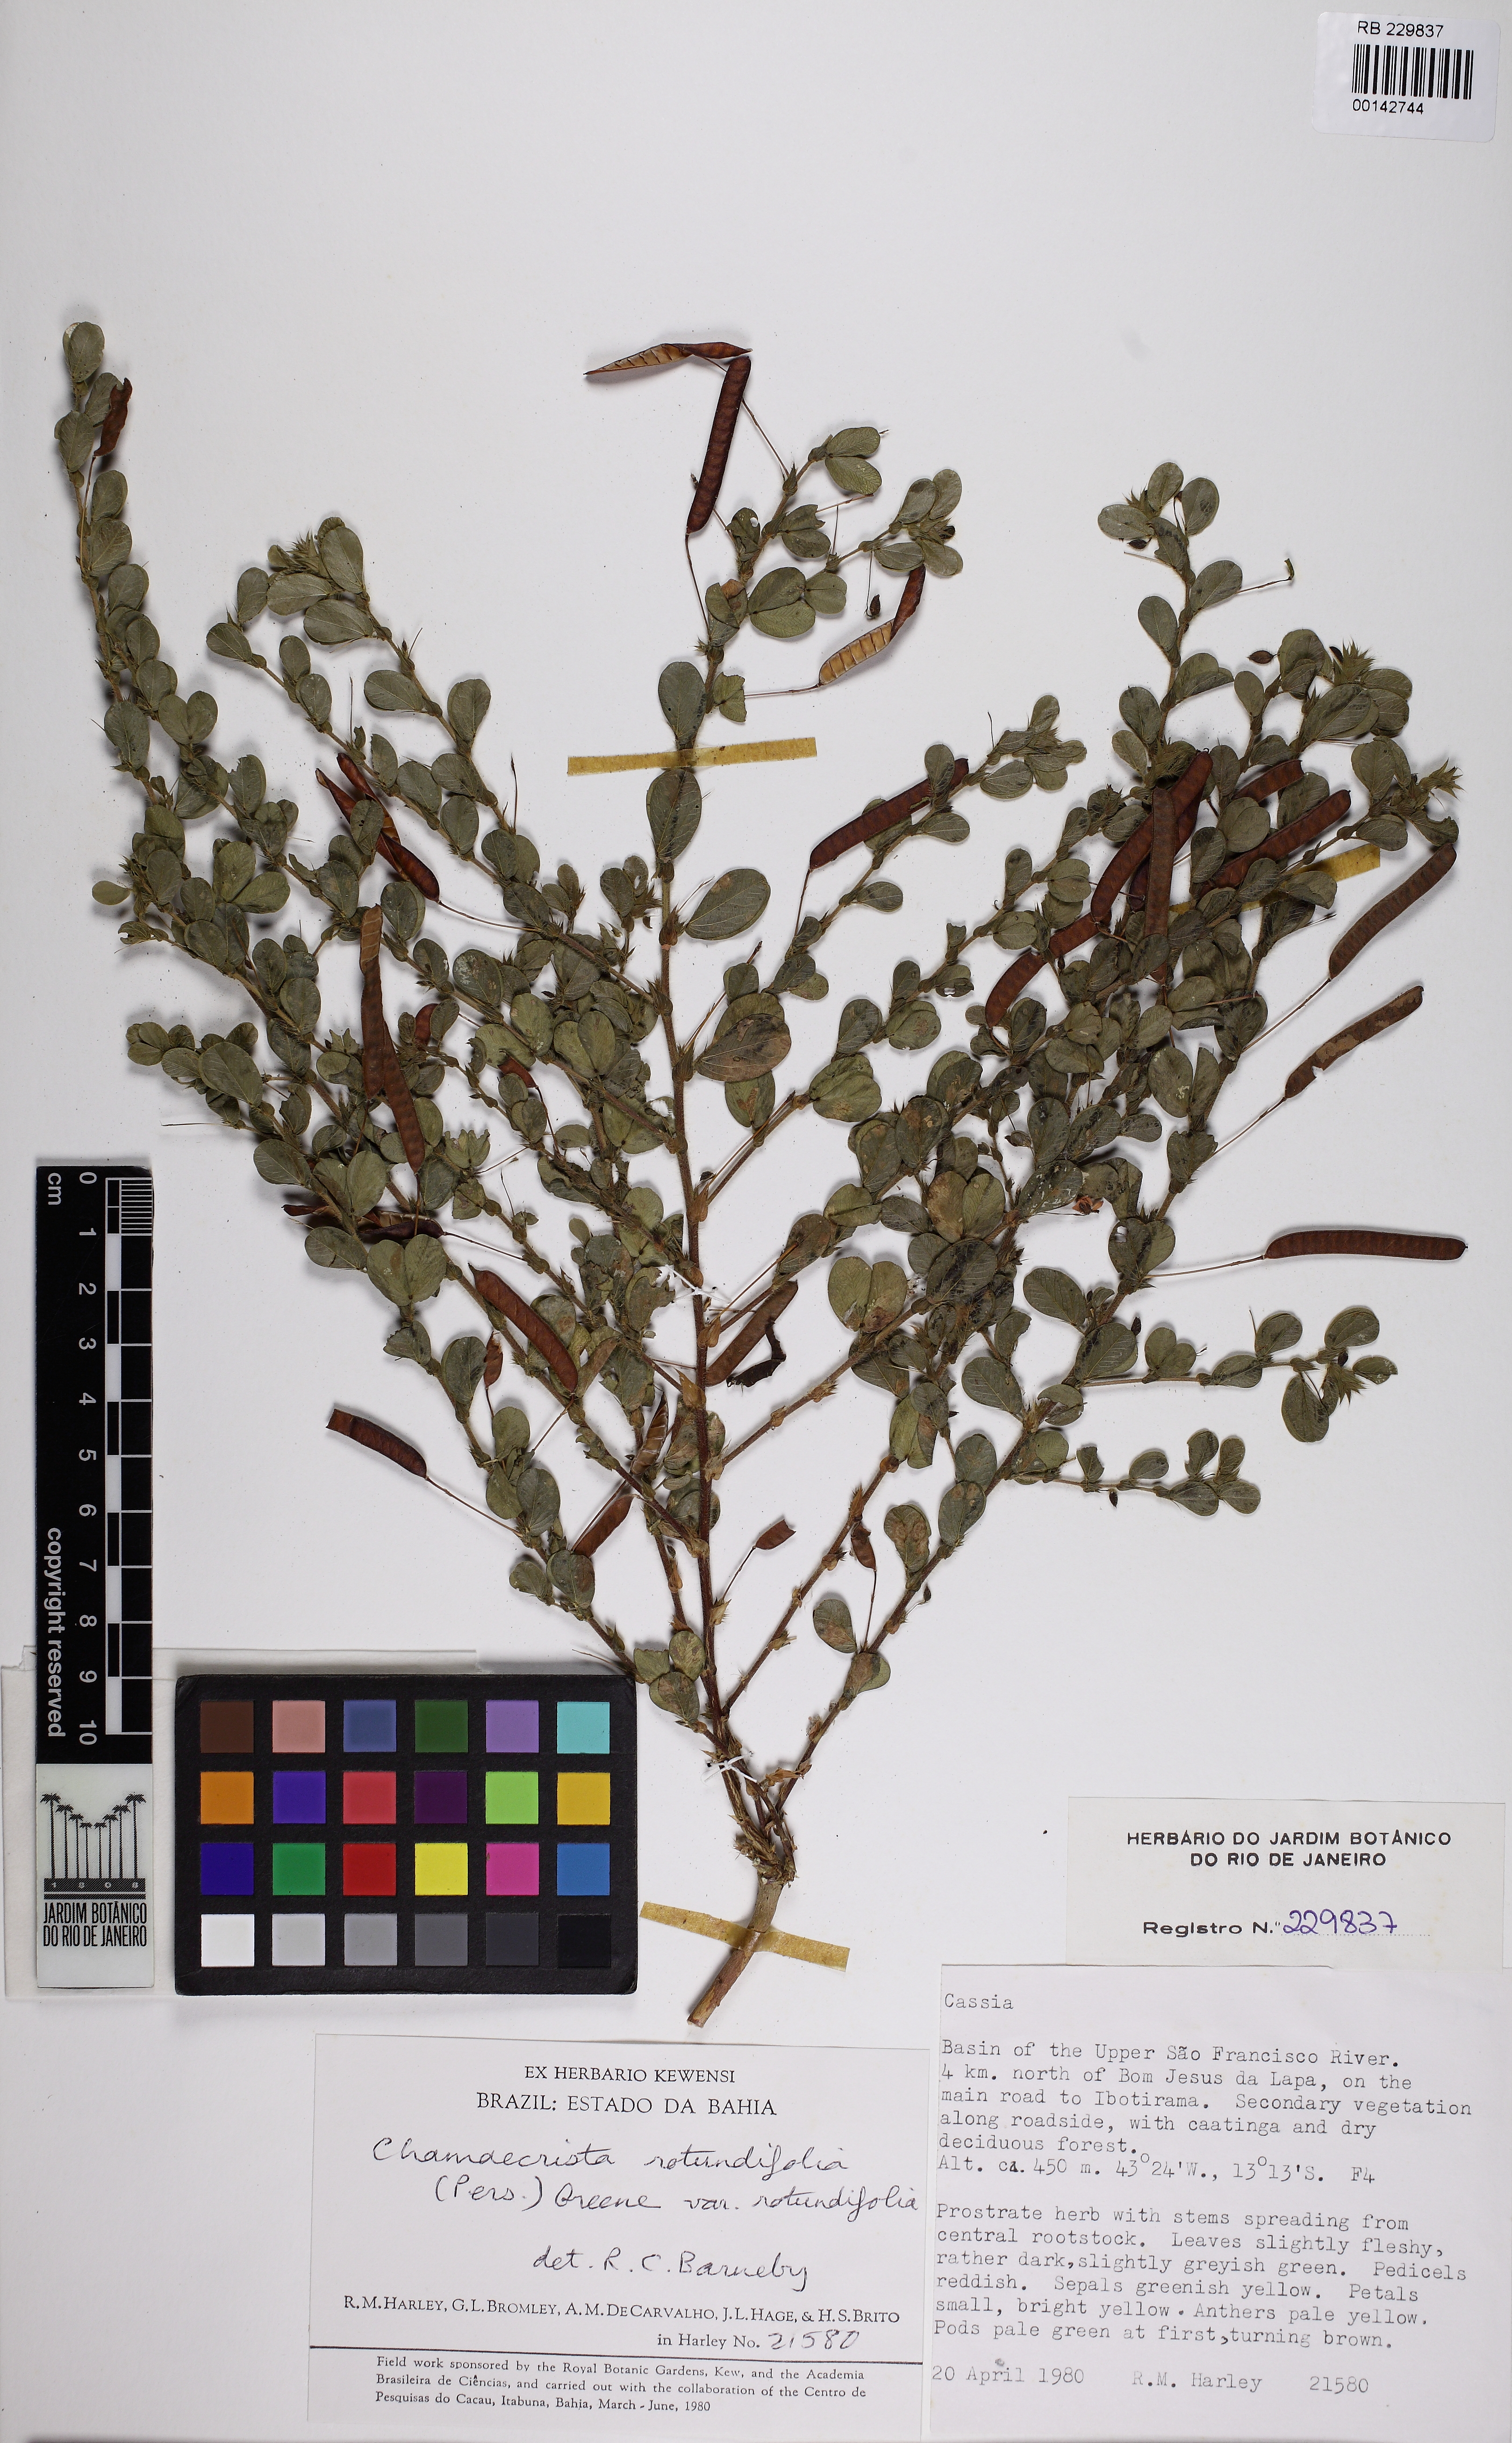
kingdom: Plantae
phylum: Tracheophyta
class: Magnoliopsida
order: Fabales
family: Fabaceae
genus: Chamaecrista
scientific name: Chamaecrista rotundifolia
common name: Round-leaf cassia
